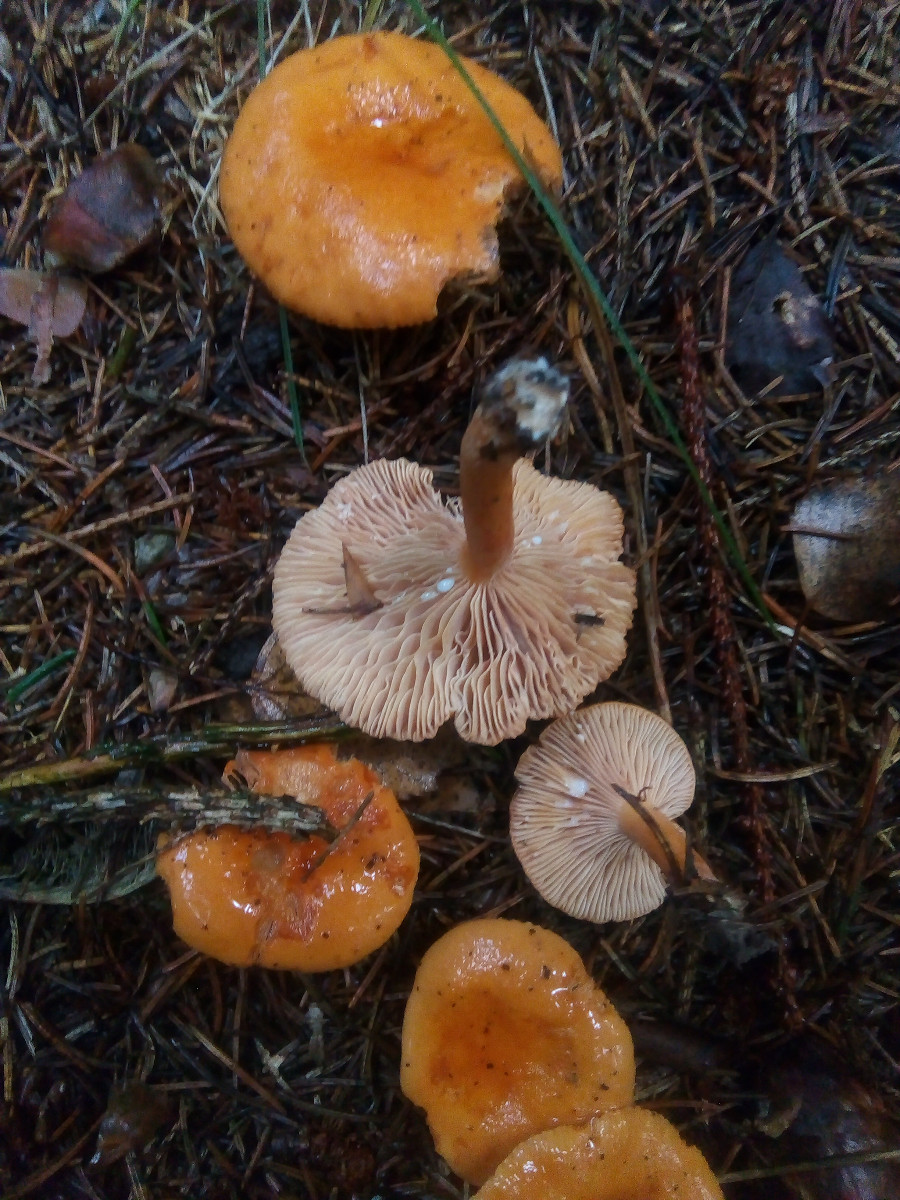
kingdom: Fungi
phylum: Basidiomycota
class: Agaricomycetes
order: Russulales
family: Russulaceae
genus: Lactarius
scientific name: Lactarius aurantiacus
